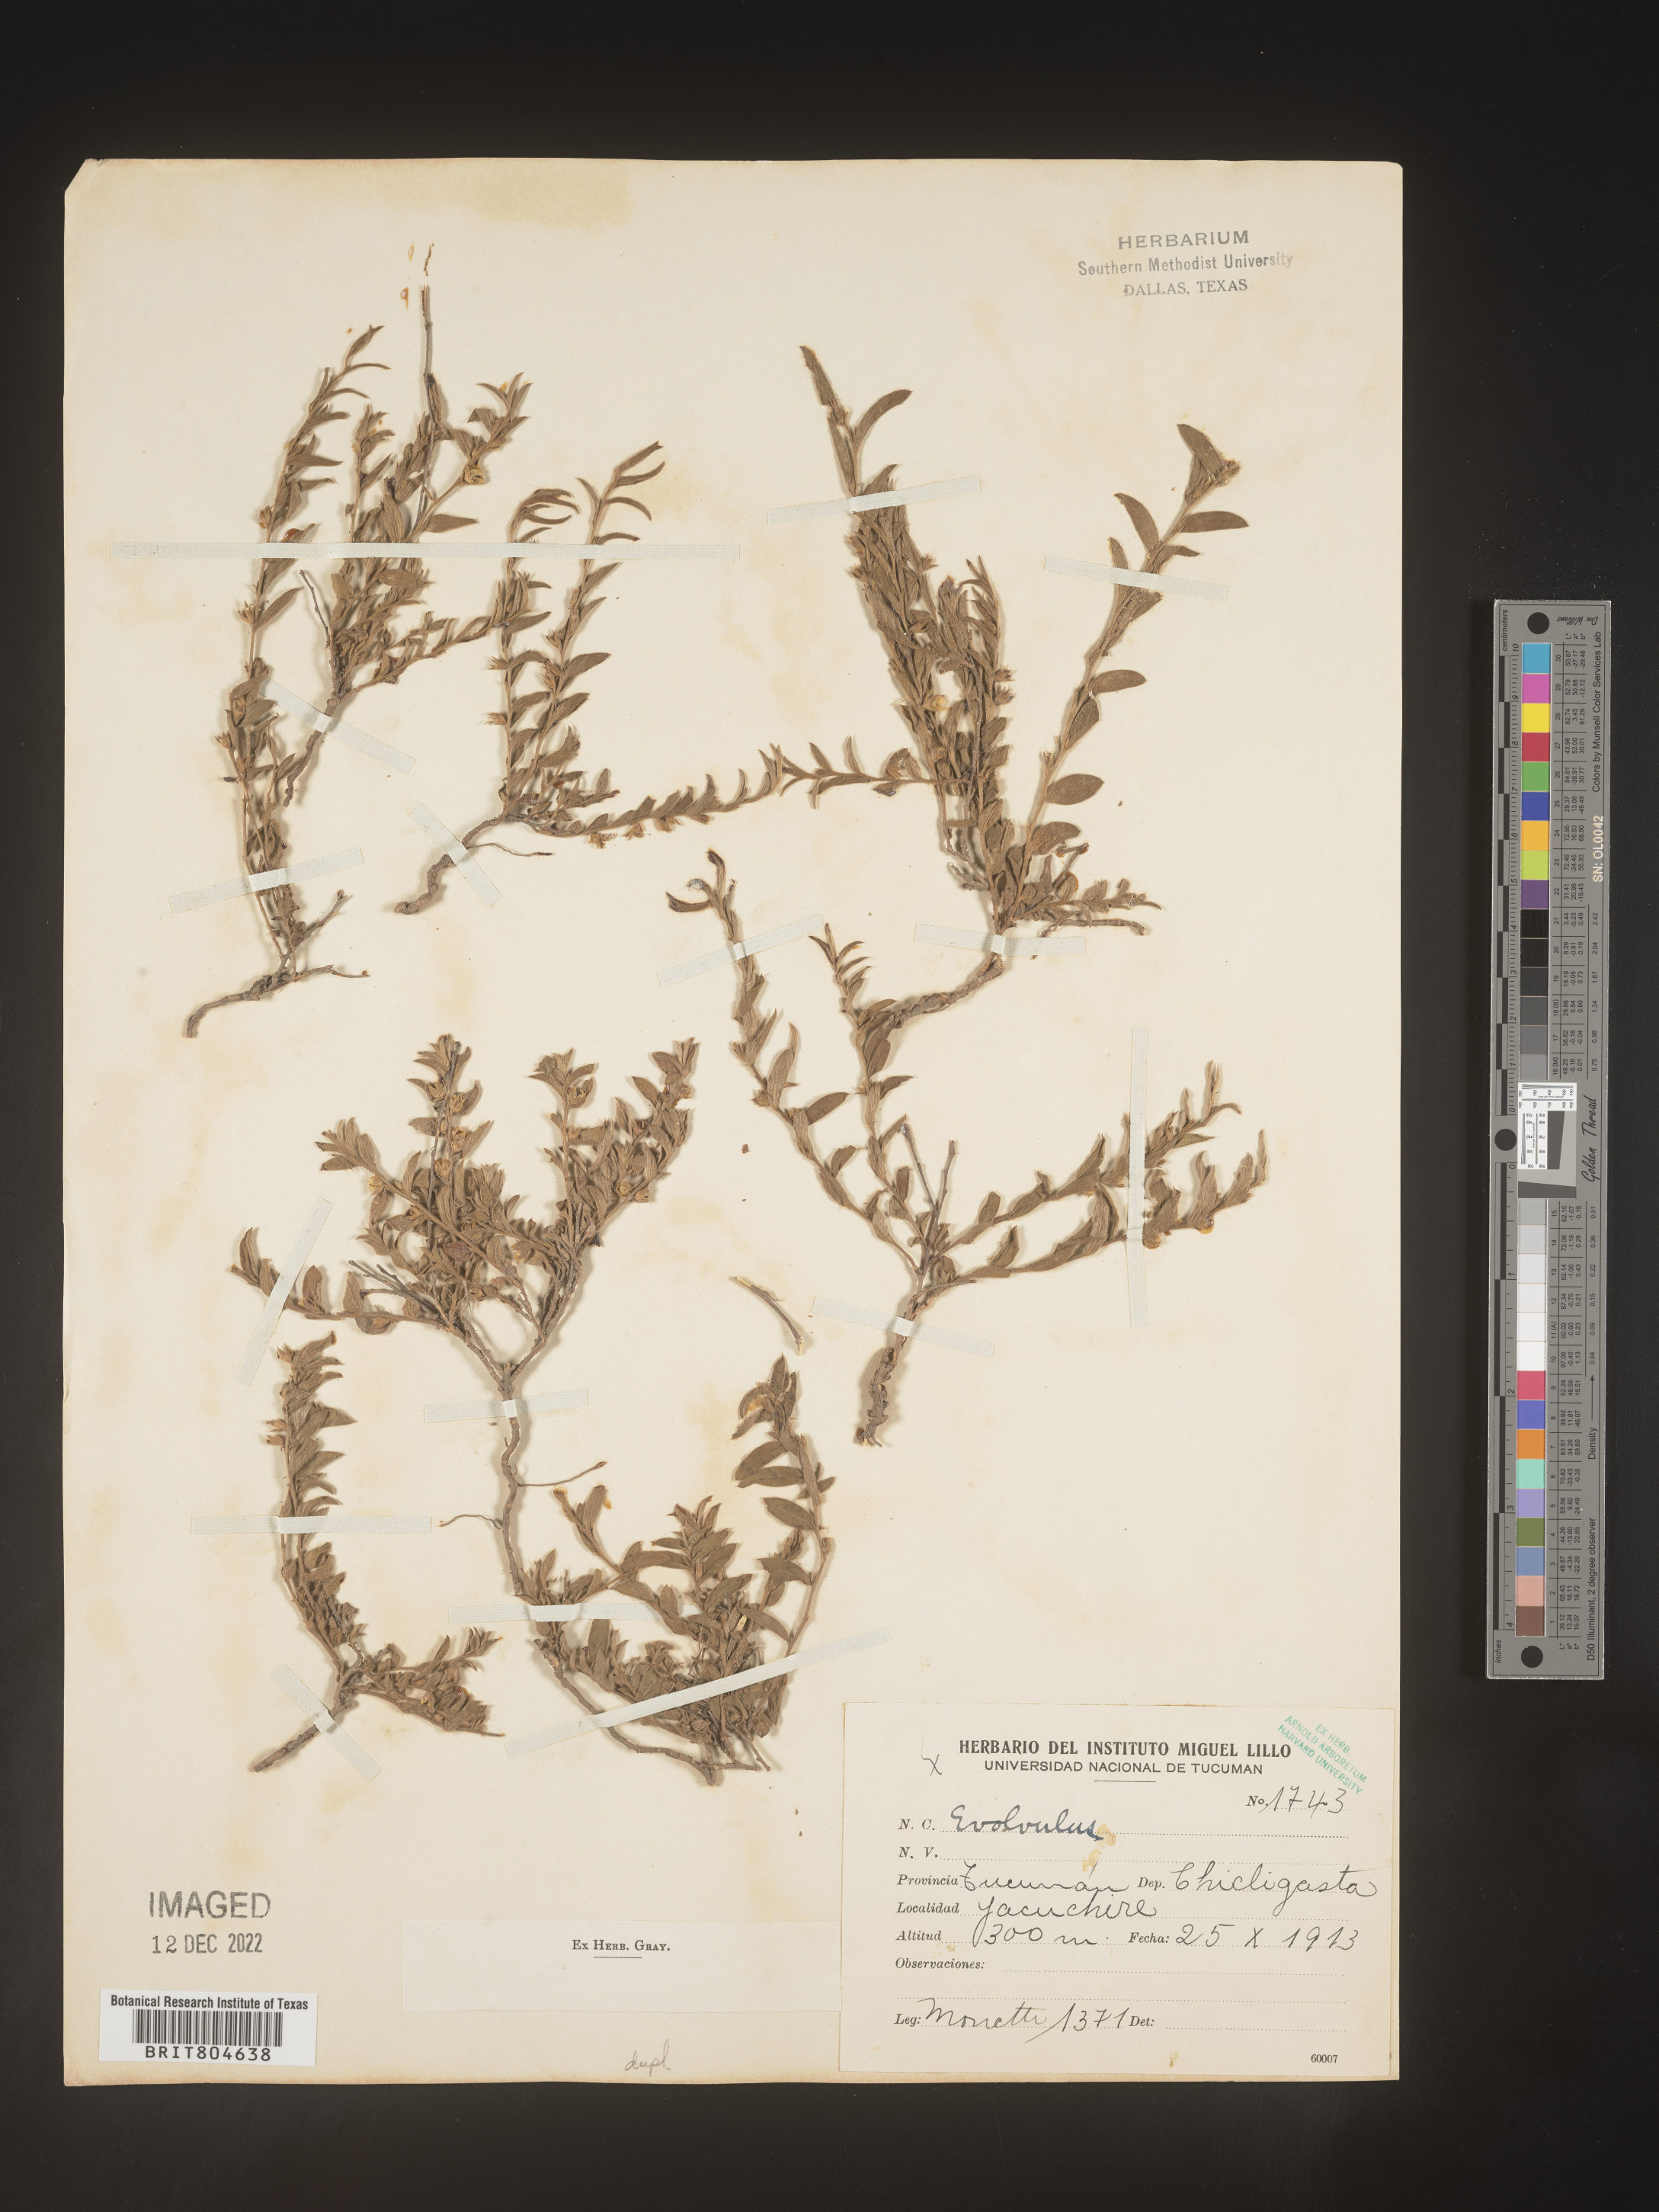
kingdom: Plantae
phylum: Tracheophyta
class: Magnoliopsida
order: Solanales
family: Convolvulaceae
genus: Evolvulus
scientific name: Evolvulus
